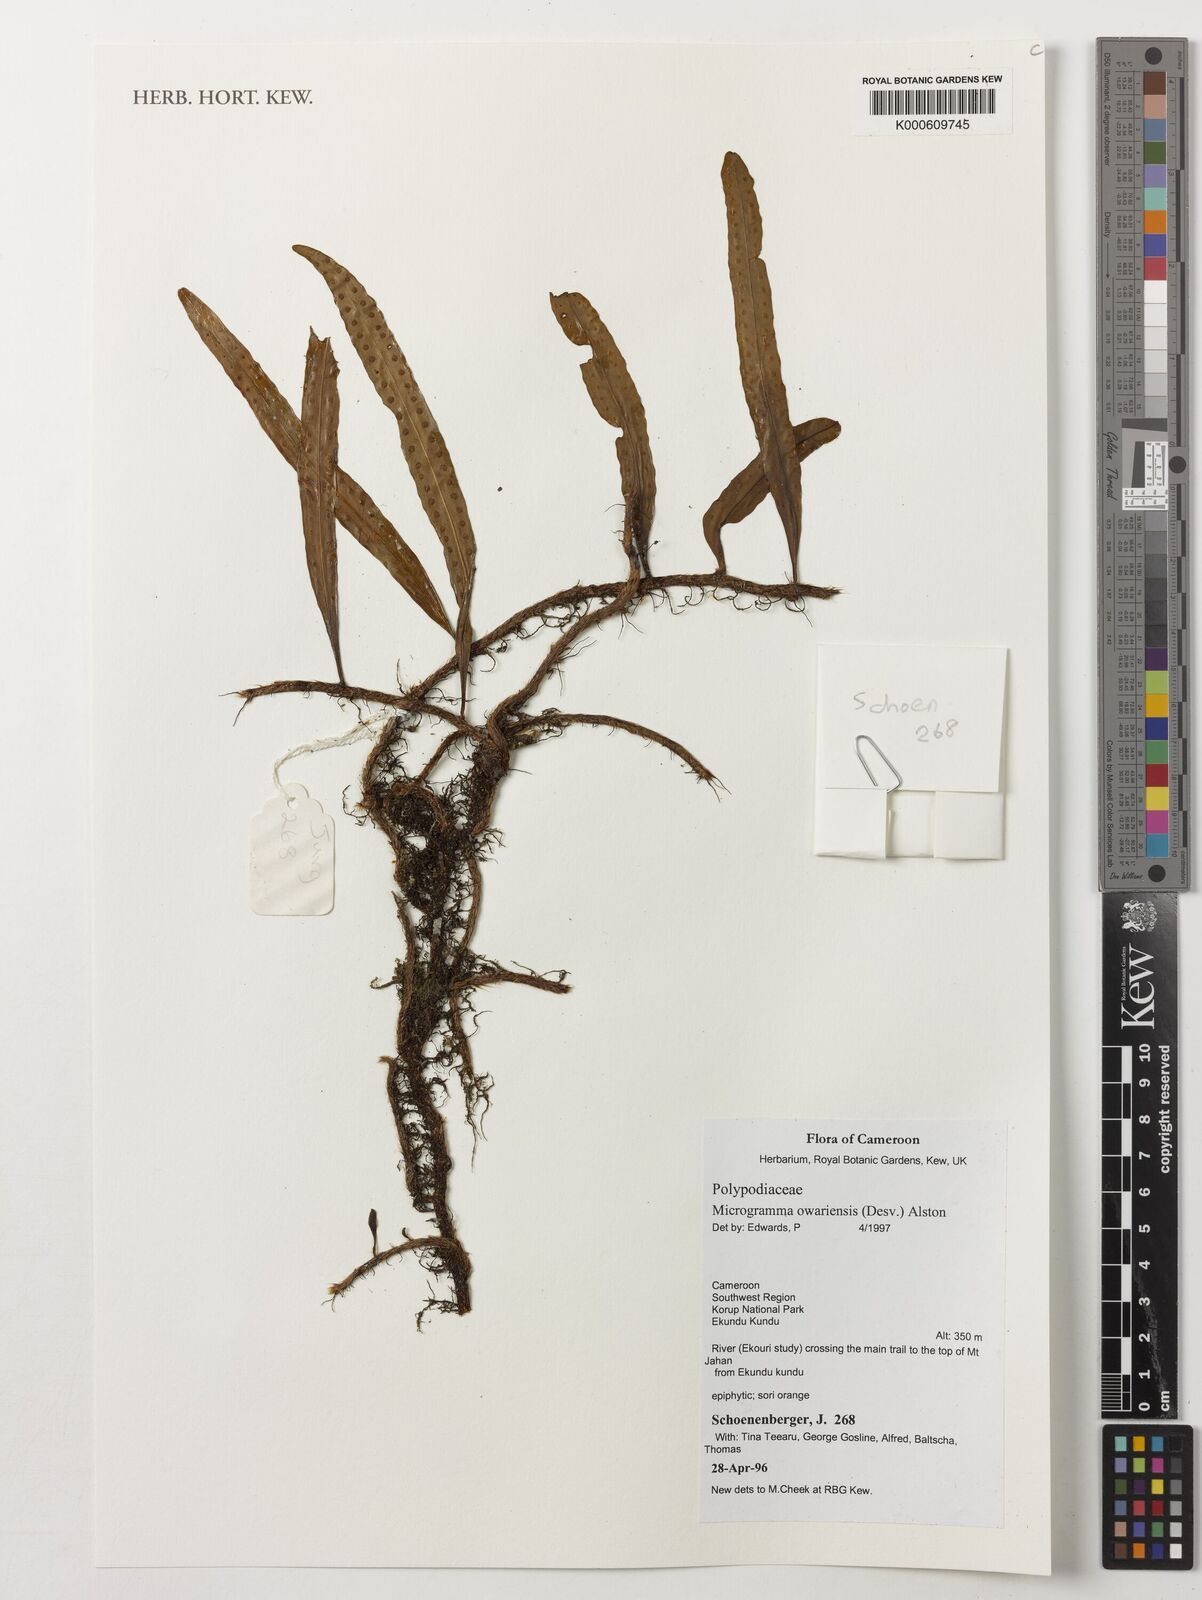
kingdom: Plantae
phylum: Tracheophyta
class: Polypodiopsida
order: Polypodiales
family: Polypodiaceae
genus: Microgramma
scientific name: Microgramma mauritiana
